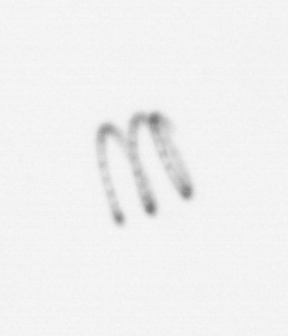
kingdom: Chromista
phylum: Ochrophyta
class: Bacillariophyceae
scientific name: Bacillariophyceae
